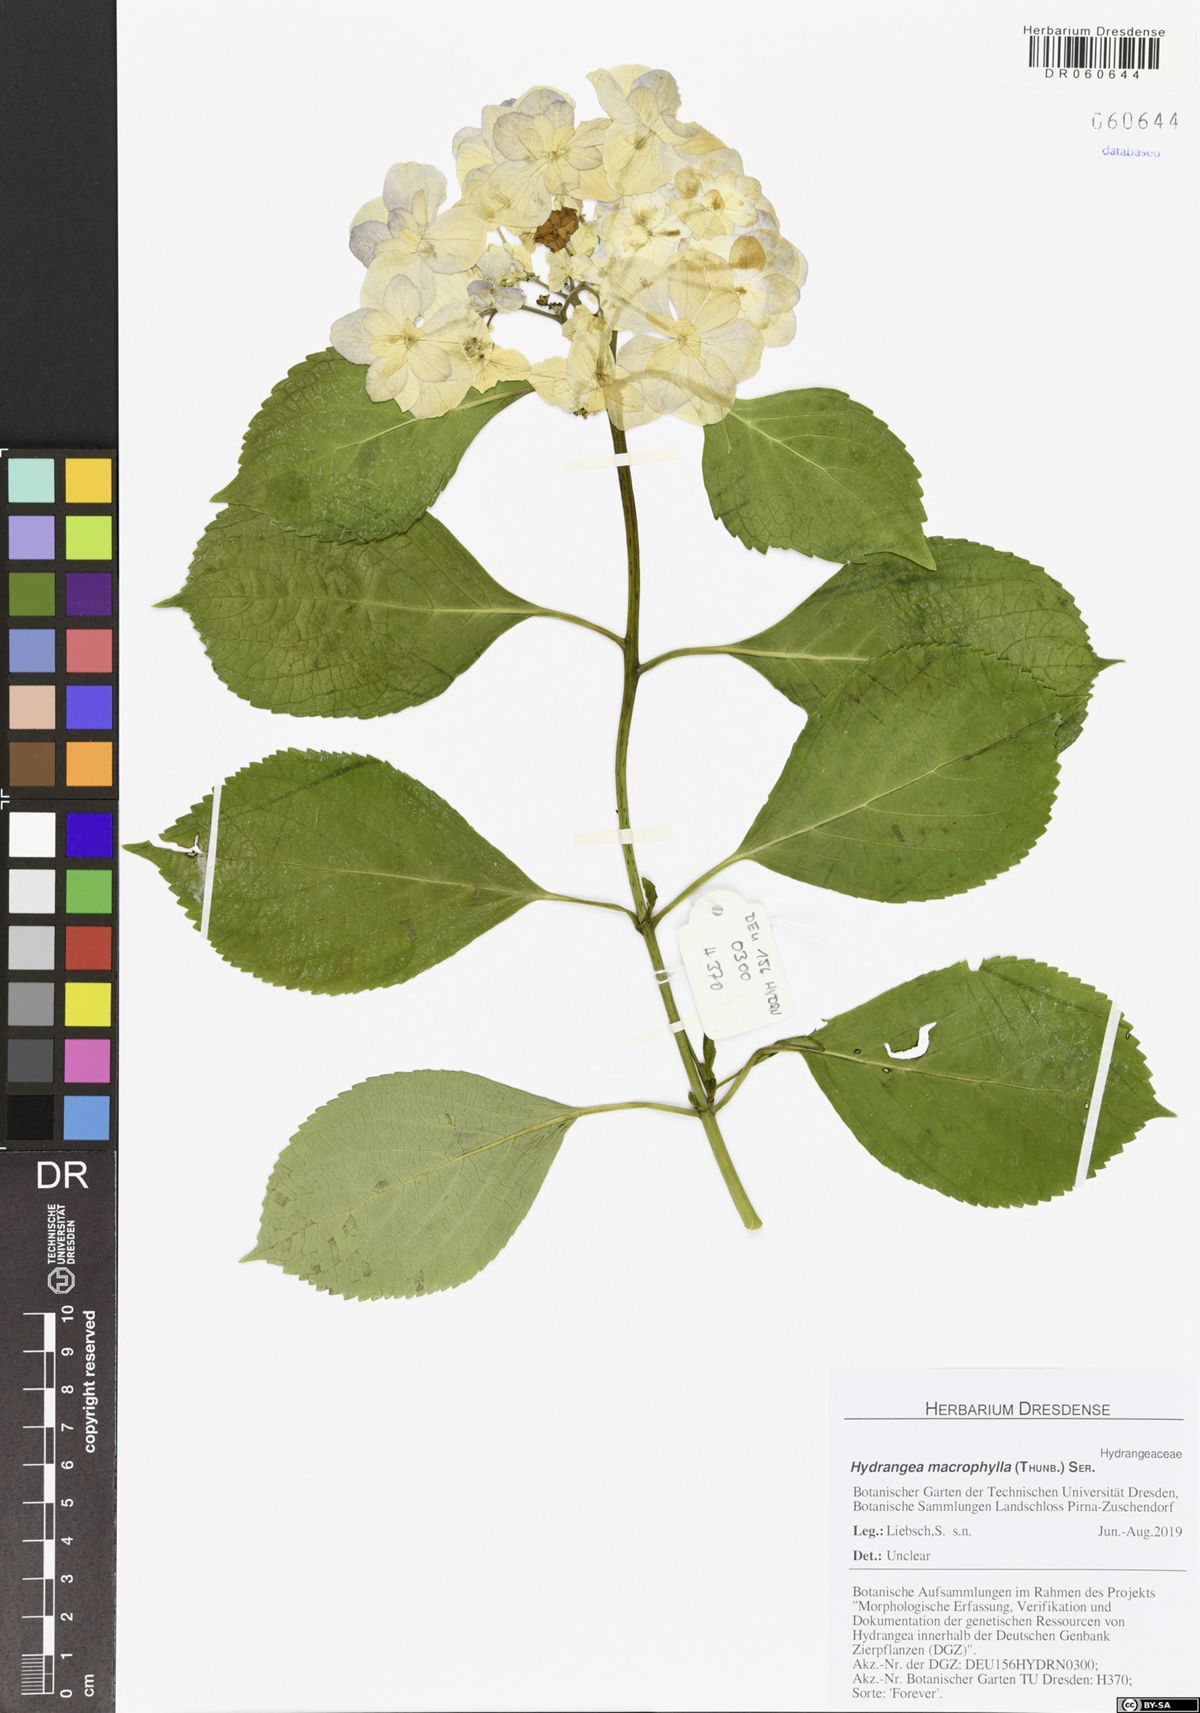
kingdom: Plantae
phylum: Tracheophyta
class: Magnoliopsida
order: Cornales
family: Hydrangeaceae
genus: Hydrangea
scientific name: Hydrangea macrophylla
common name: Hydrangea
